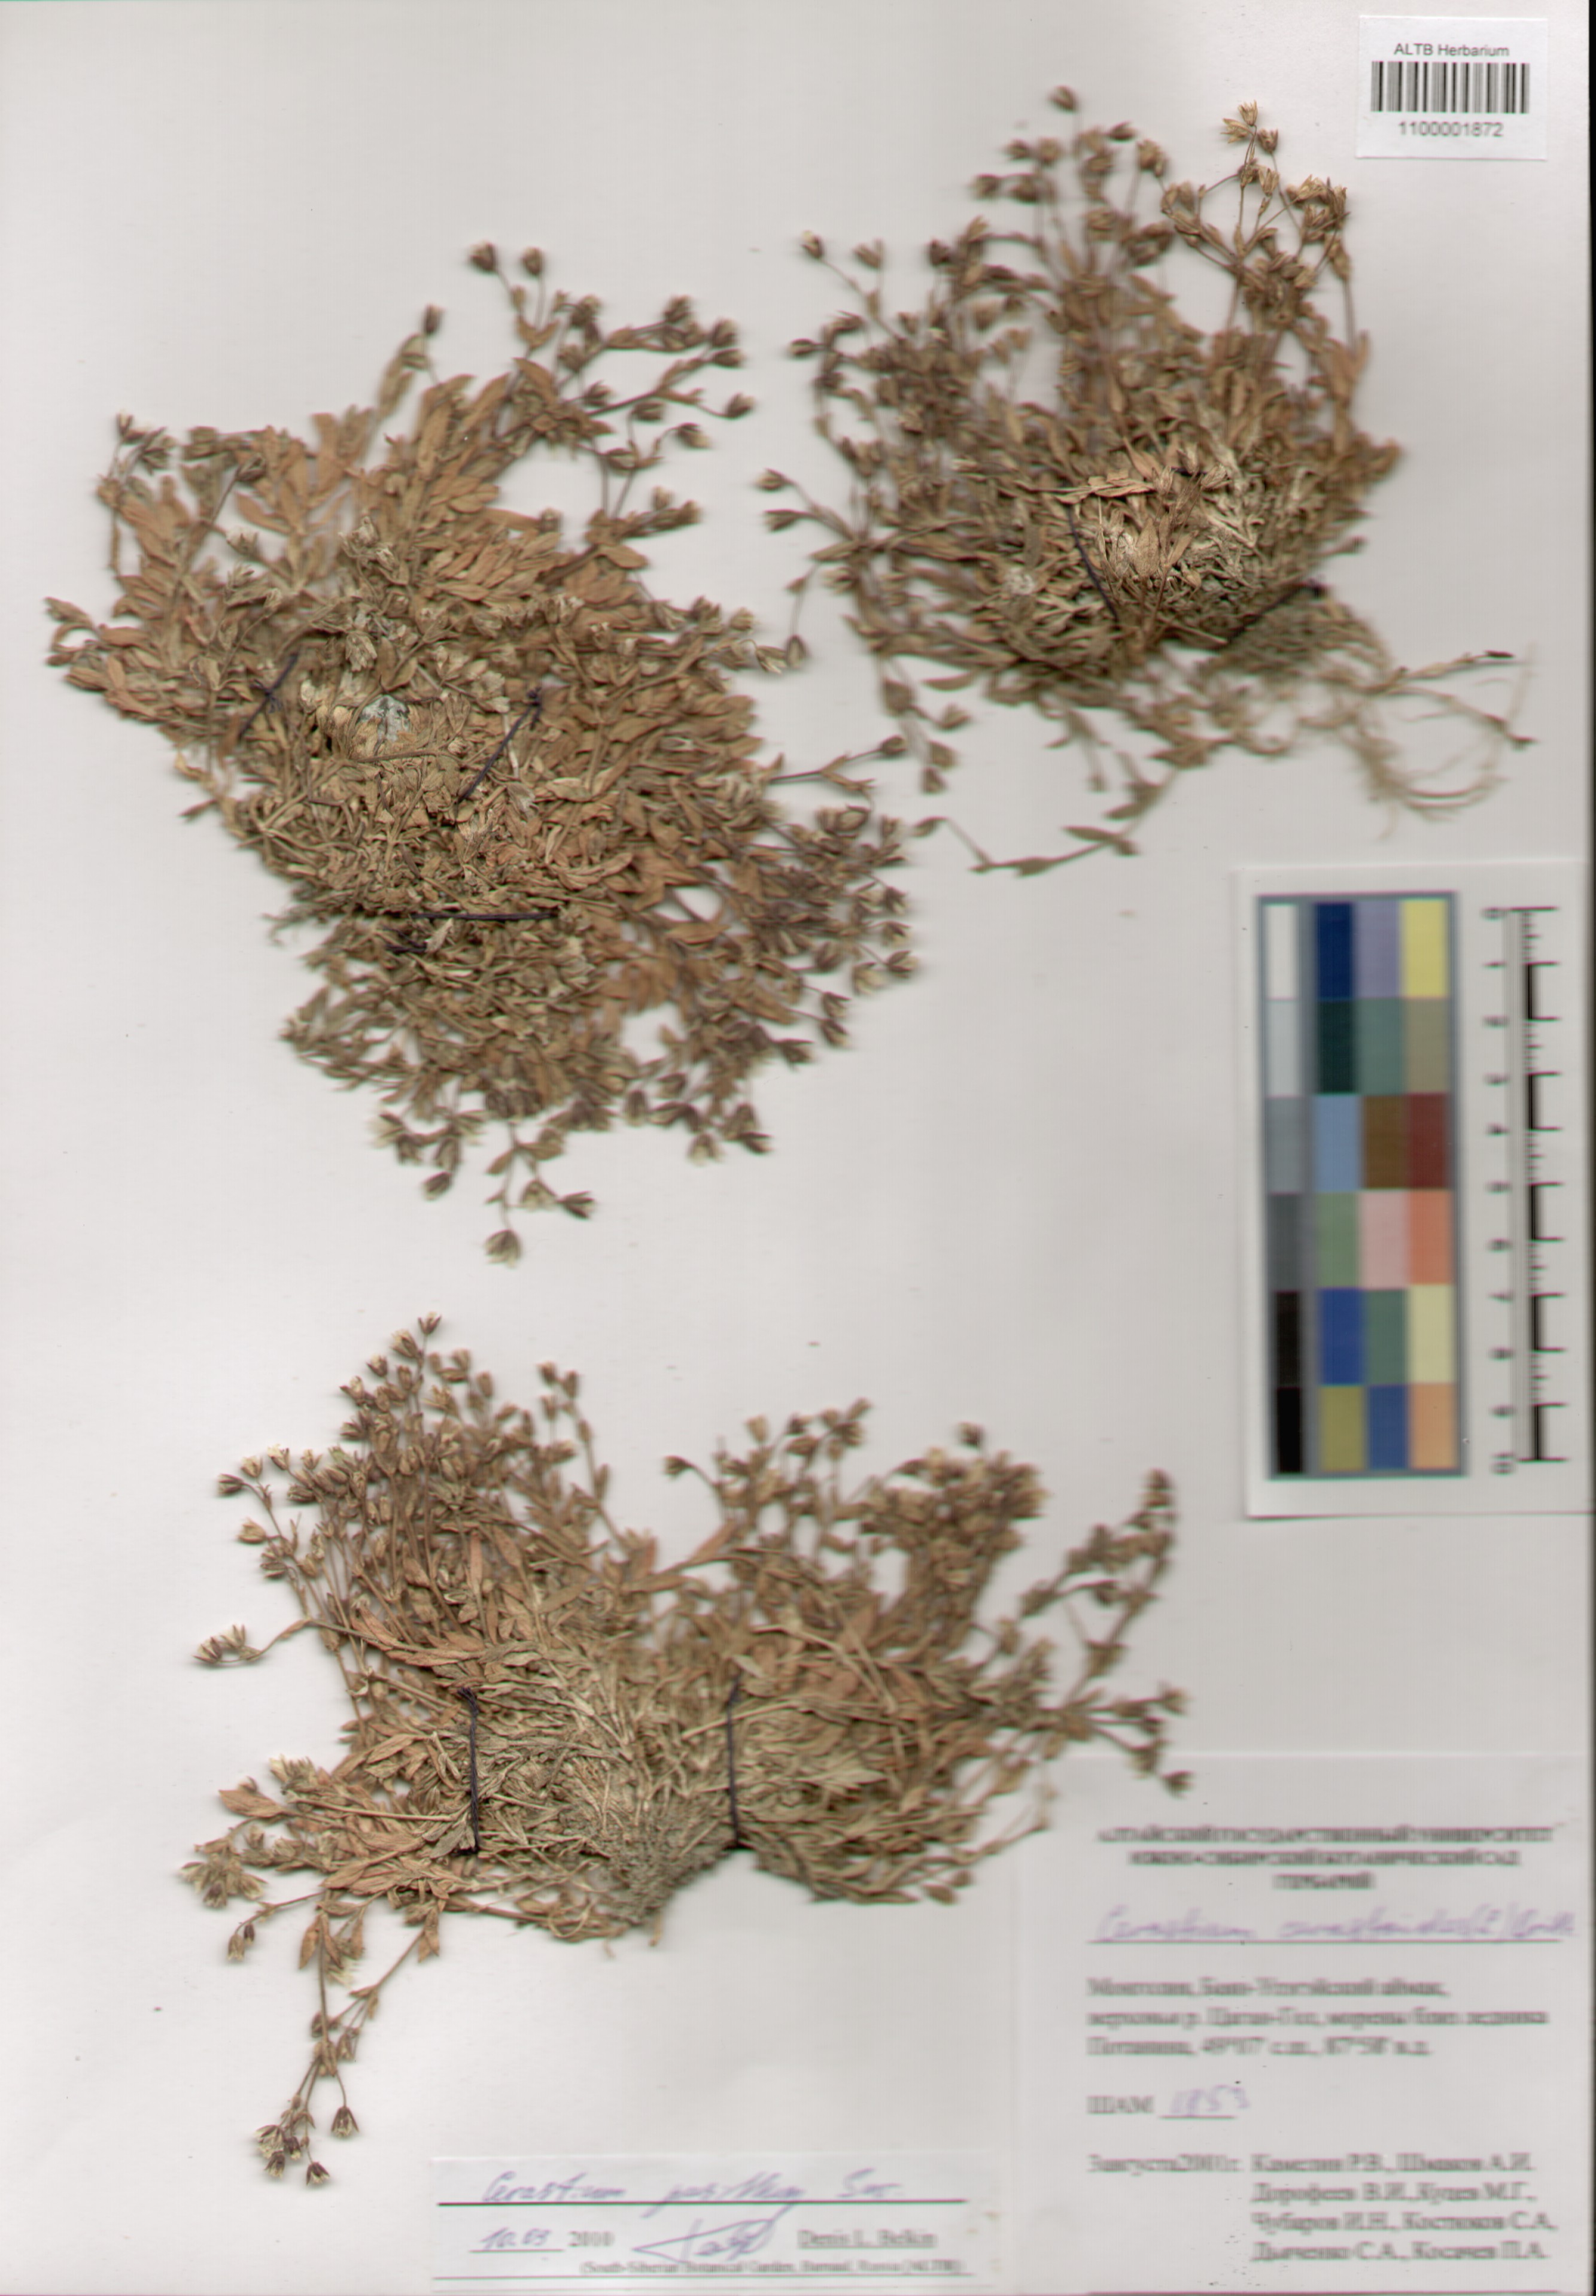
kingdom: Plantae
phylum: Tracheophyta
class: Magnoliopsida
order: Caryophyllales
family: Caryophyllaceae
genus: Cerastium
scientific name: Cerastium pusillum
